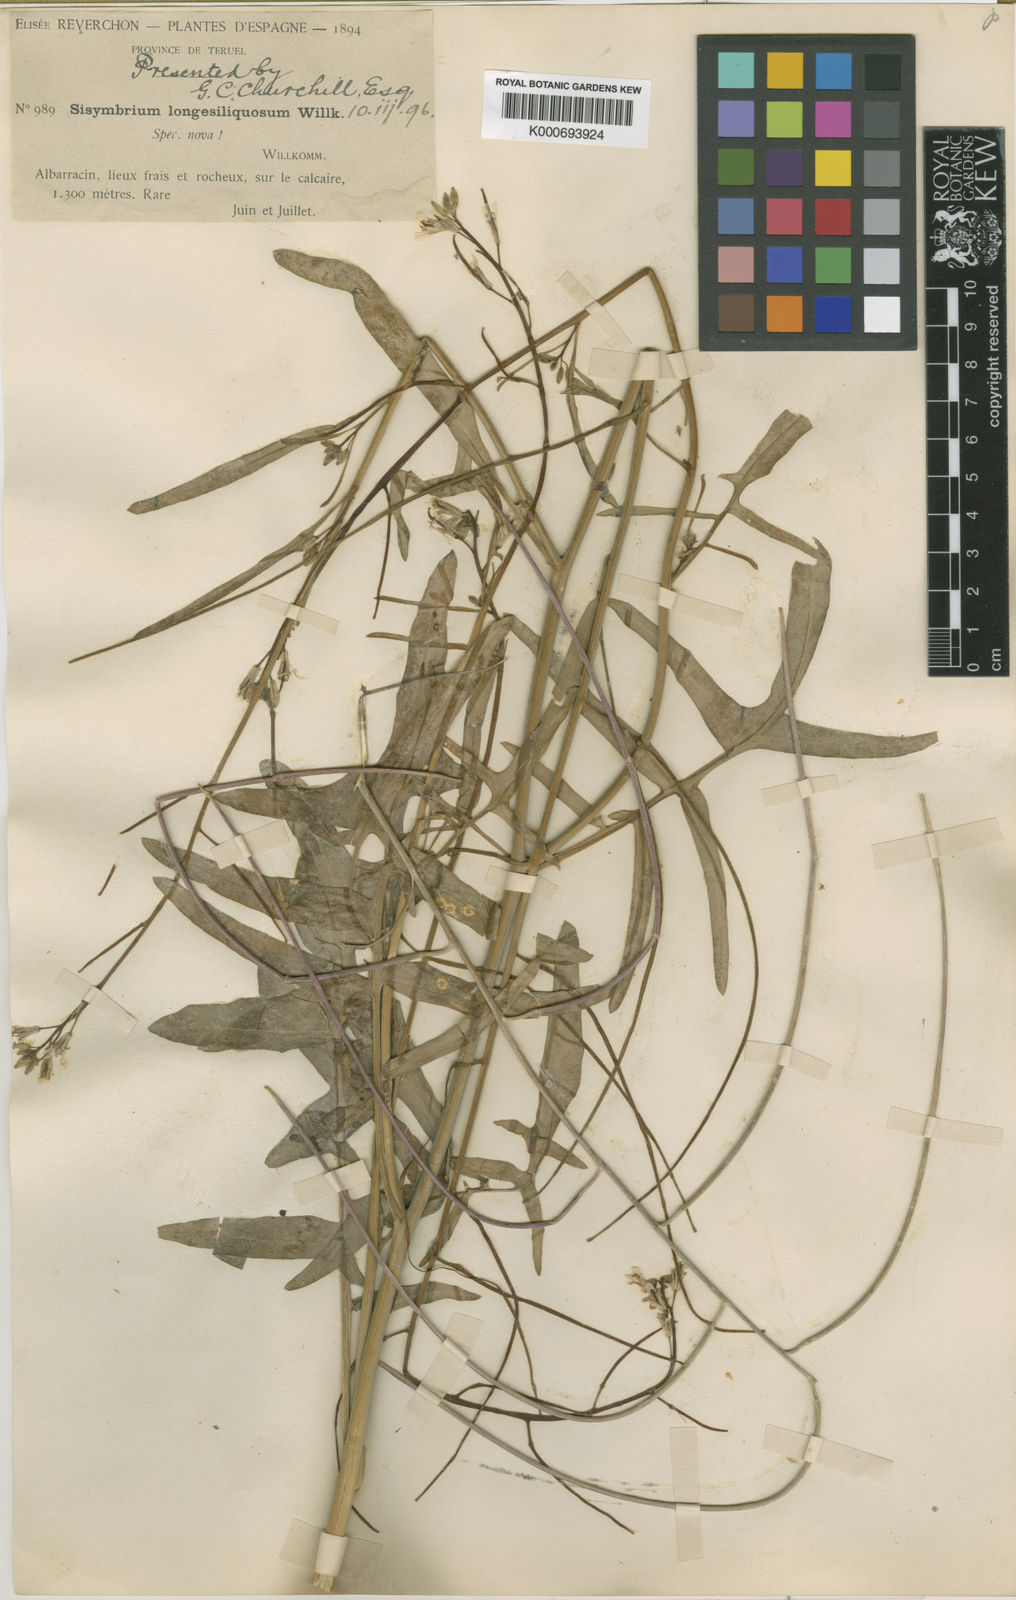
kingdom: Plantae
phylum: Tracheophyta
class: Magnoliopsida
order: Brassicales
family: Brassicaceae
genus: Sisymbrium
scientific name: Sisymbrium orientale
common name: Eastern rocket
